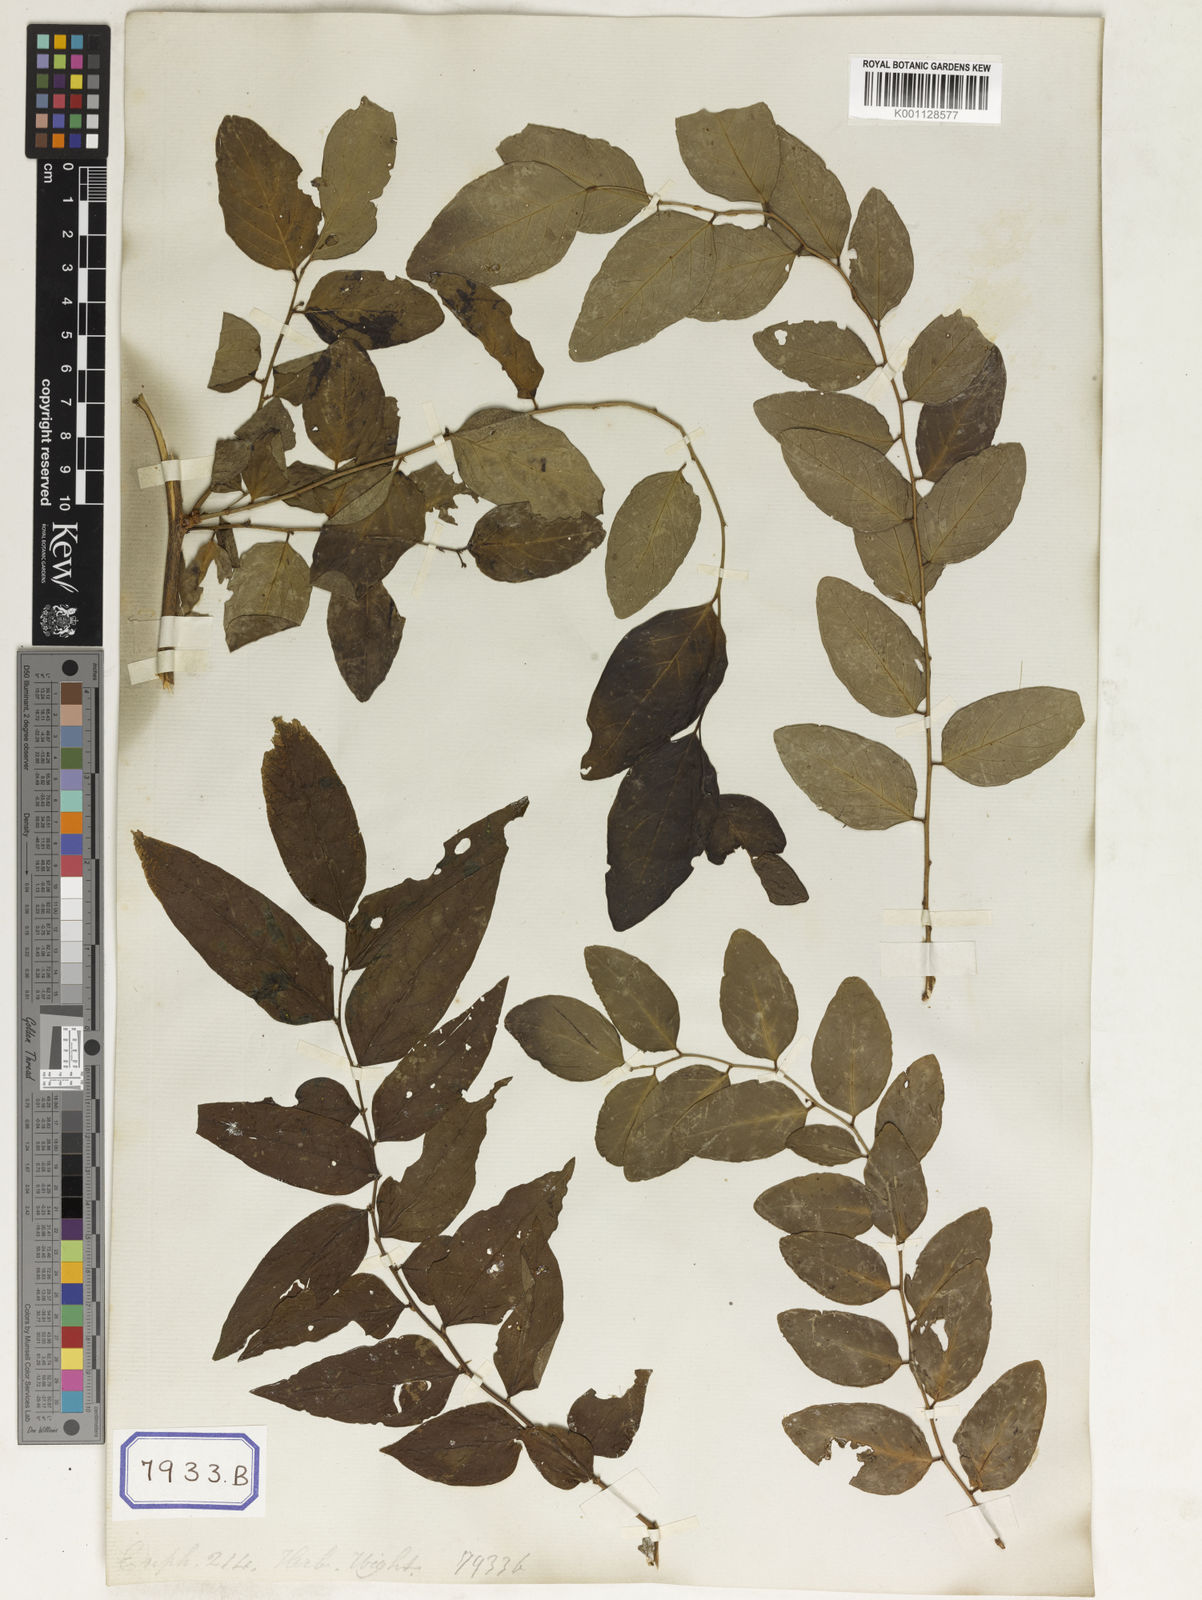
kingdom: Plantae
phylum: Tracheophyta
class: Magnoliopsida
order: Malpighiales
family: Euphorbiaceae
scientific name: Euphorbiaceae
